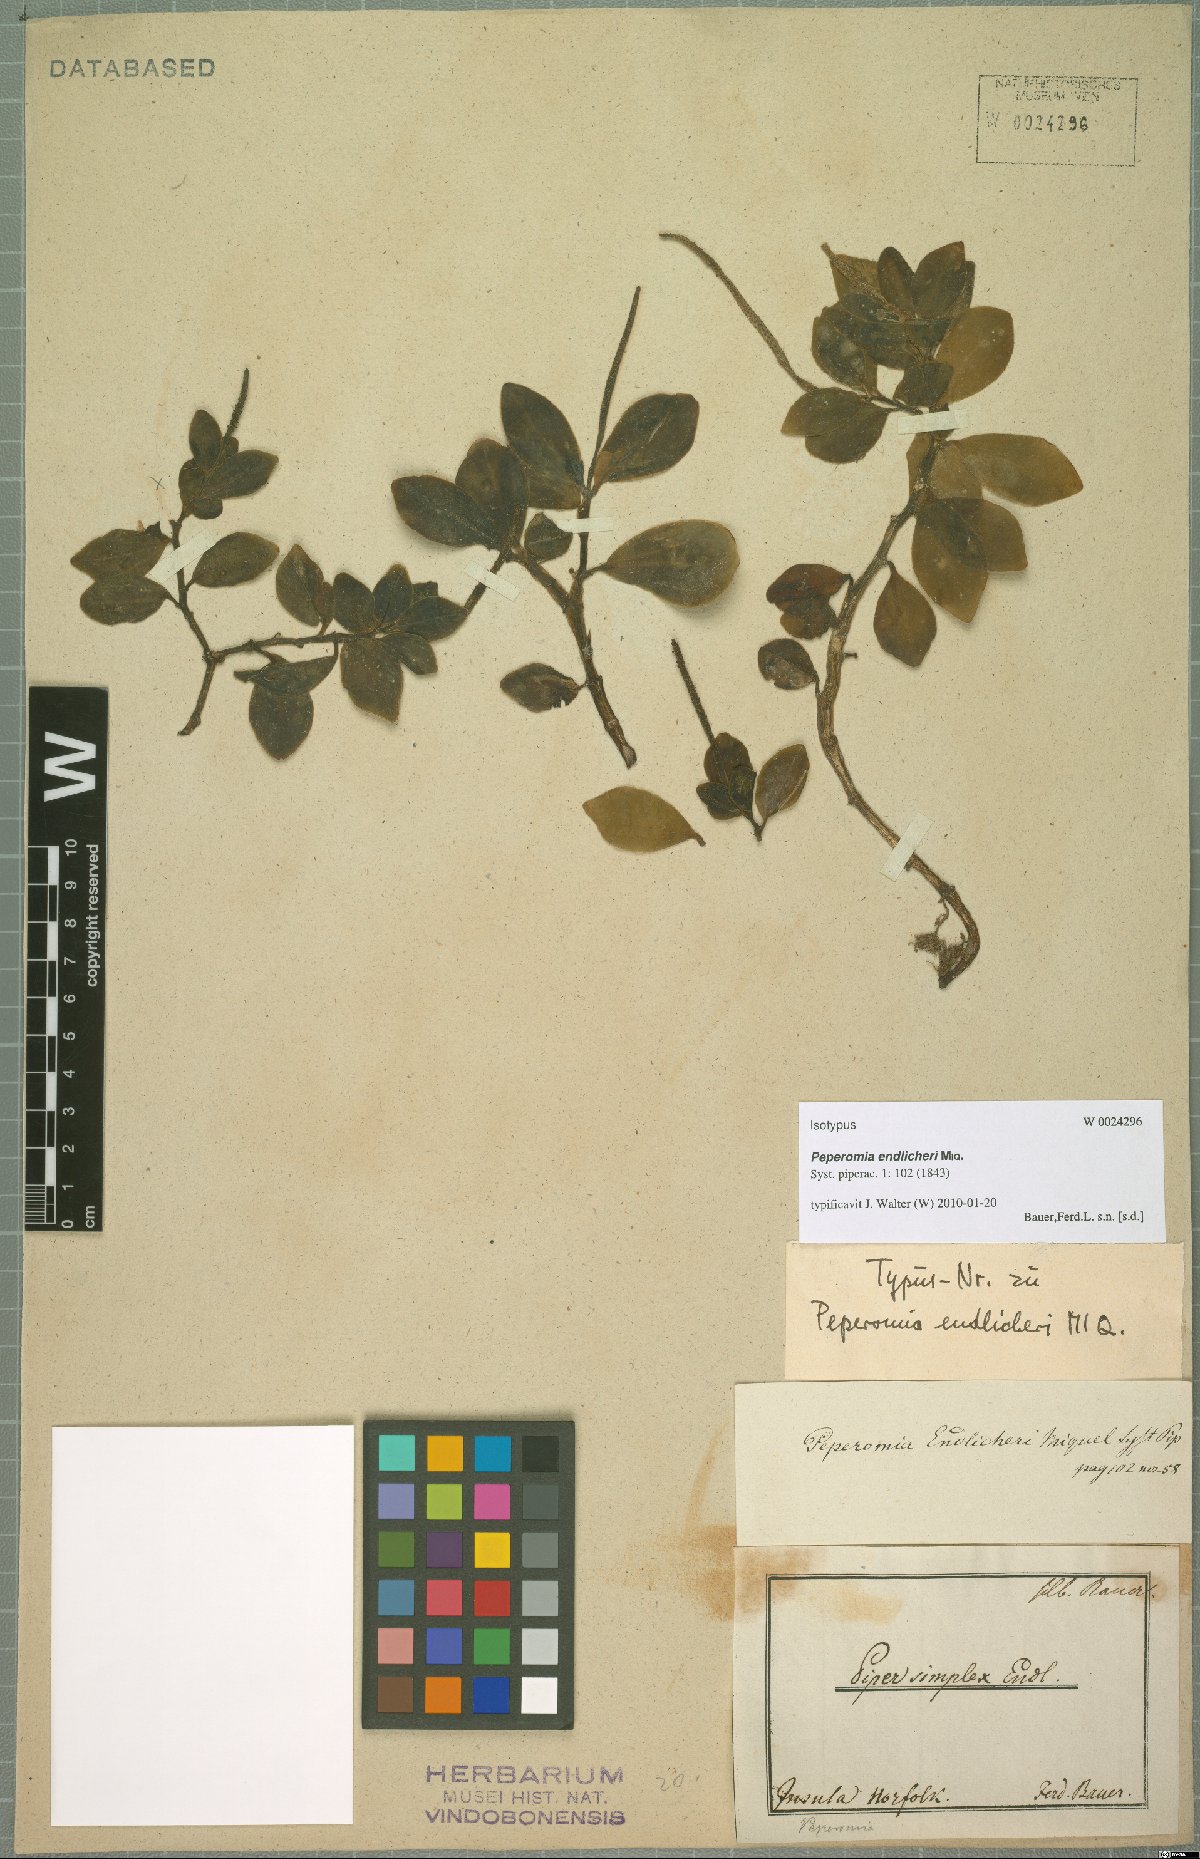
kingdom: Plantae
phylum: Tracheophyta
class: Magnoliopsida
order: Piperales
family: Piperaceae
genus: Peperomia
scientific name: Peperomia urvilleana
